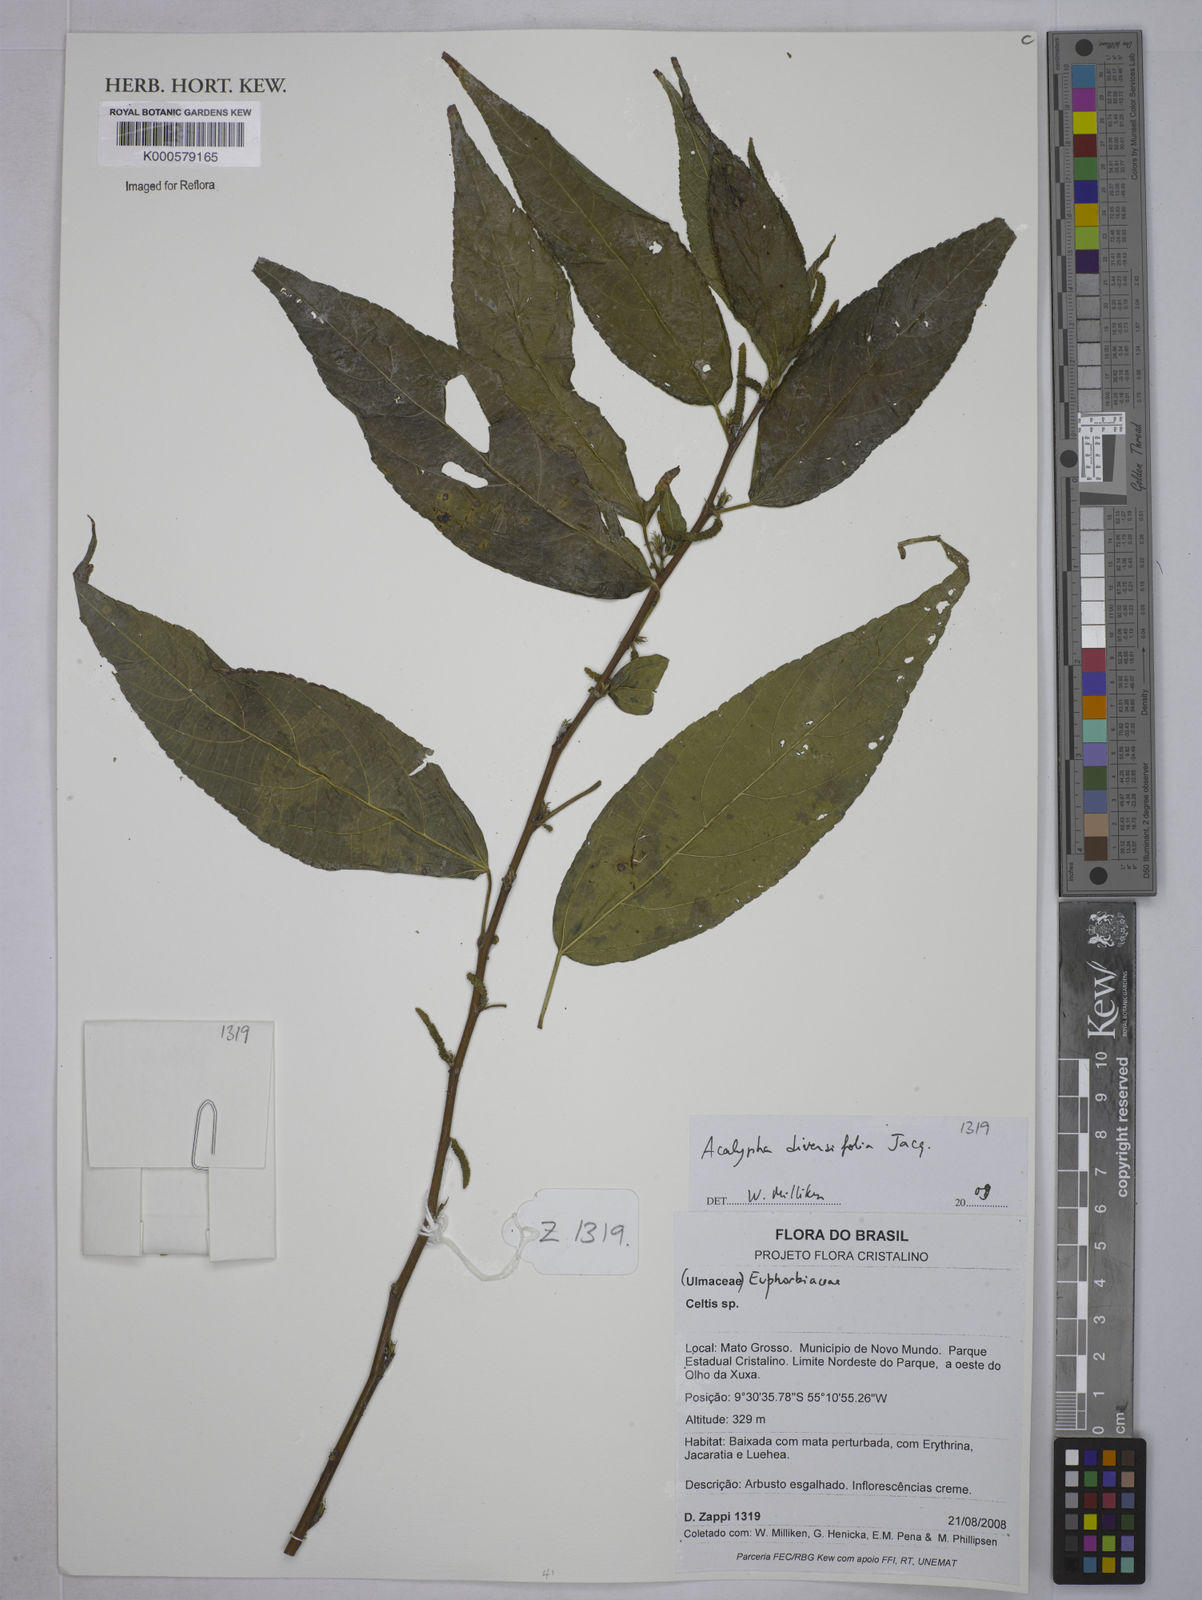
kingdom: Plantae
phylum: Tracheophyta
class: Magnoliopsida
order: Malpighiales
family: Euphorbiaceae
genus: Acalypha
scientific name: Acalypha diversifolia
